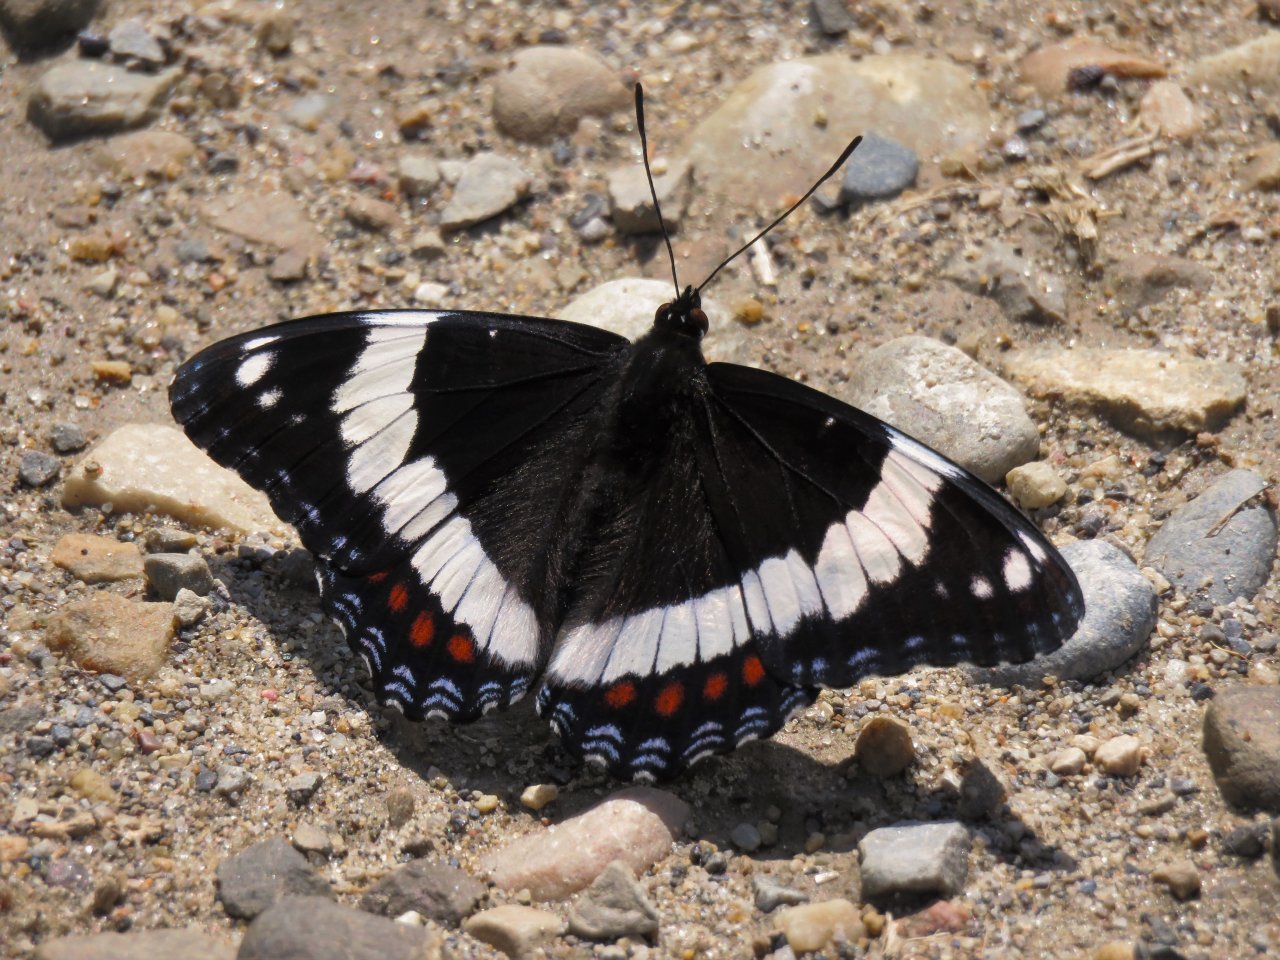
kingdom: Animalia
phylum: Arthropoda
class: Insecta
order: Lepidoptera
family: Nymphalidae
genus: Limenitis
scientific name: Limenitis arthemis
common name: Red-spotted Admiral
